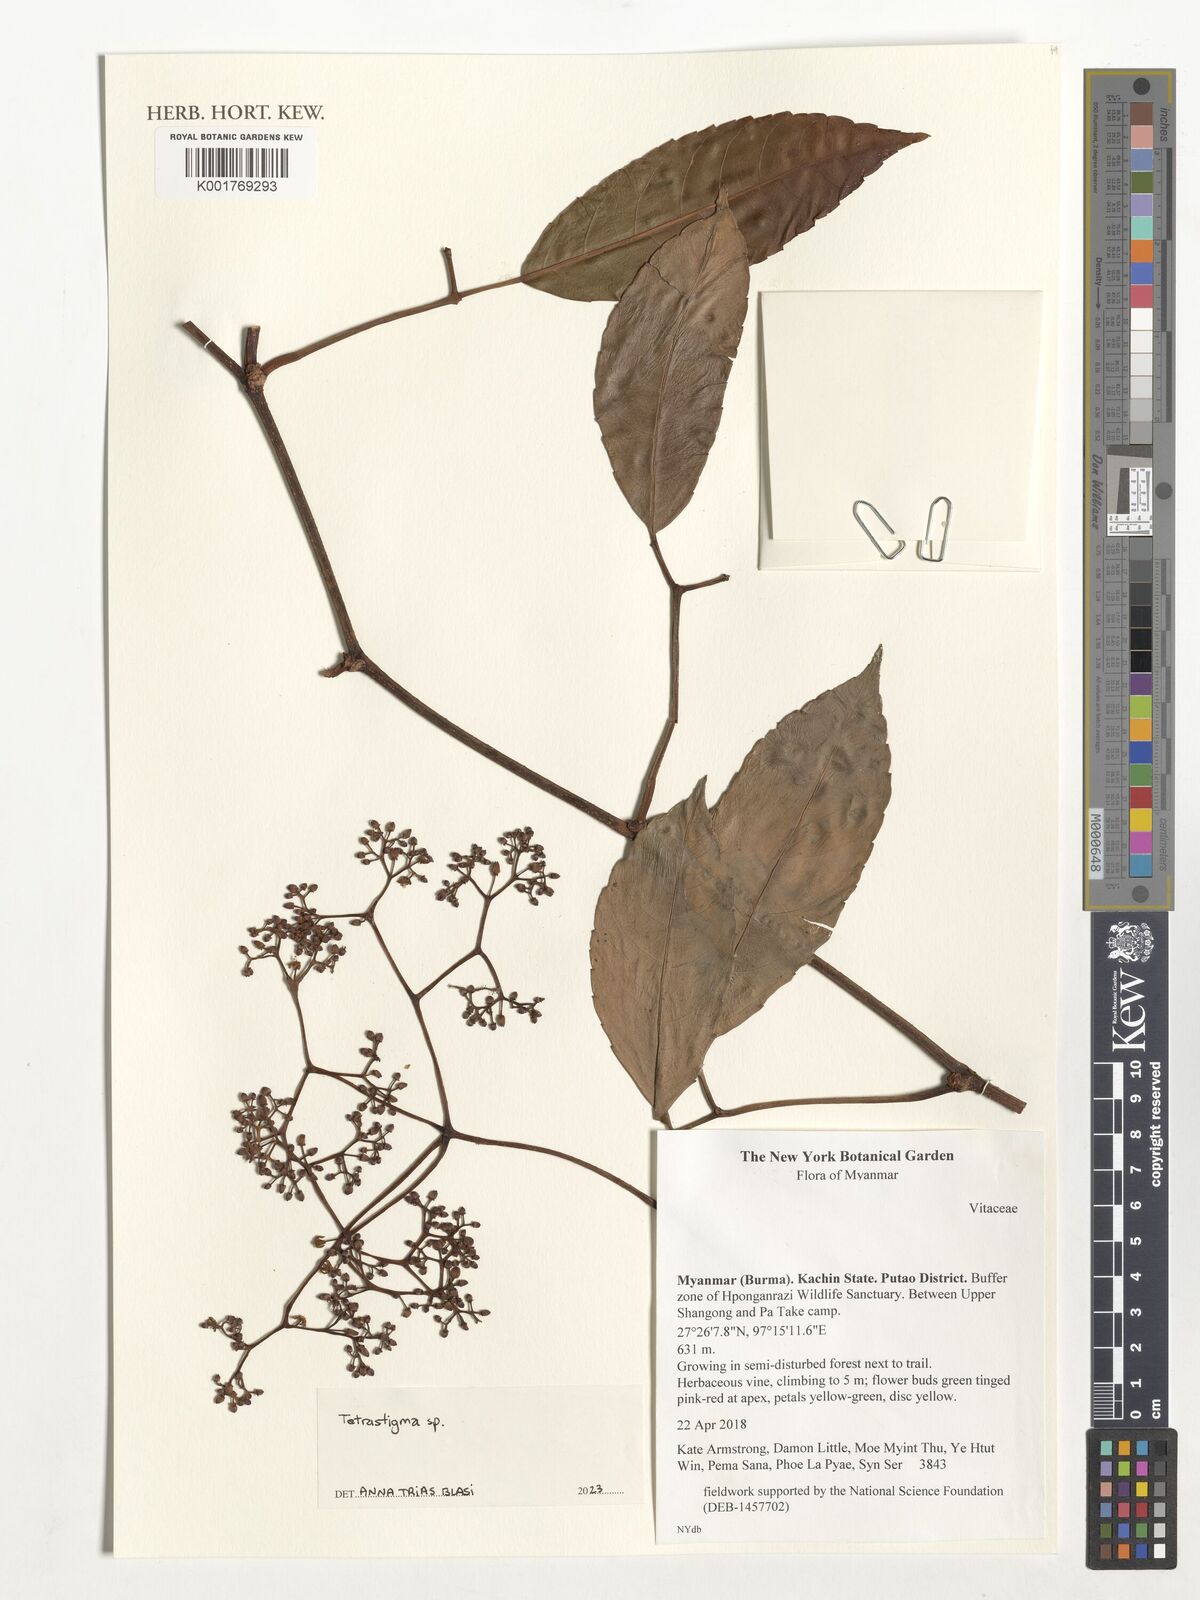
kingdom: Plantae
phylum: Tracheophyta
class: Magnoliopsida
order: Vitales
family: Vitaceae
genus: Tetrastigma
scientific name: Tetrastigma
